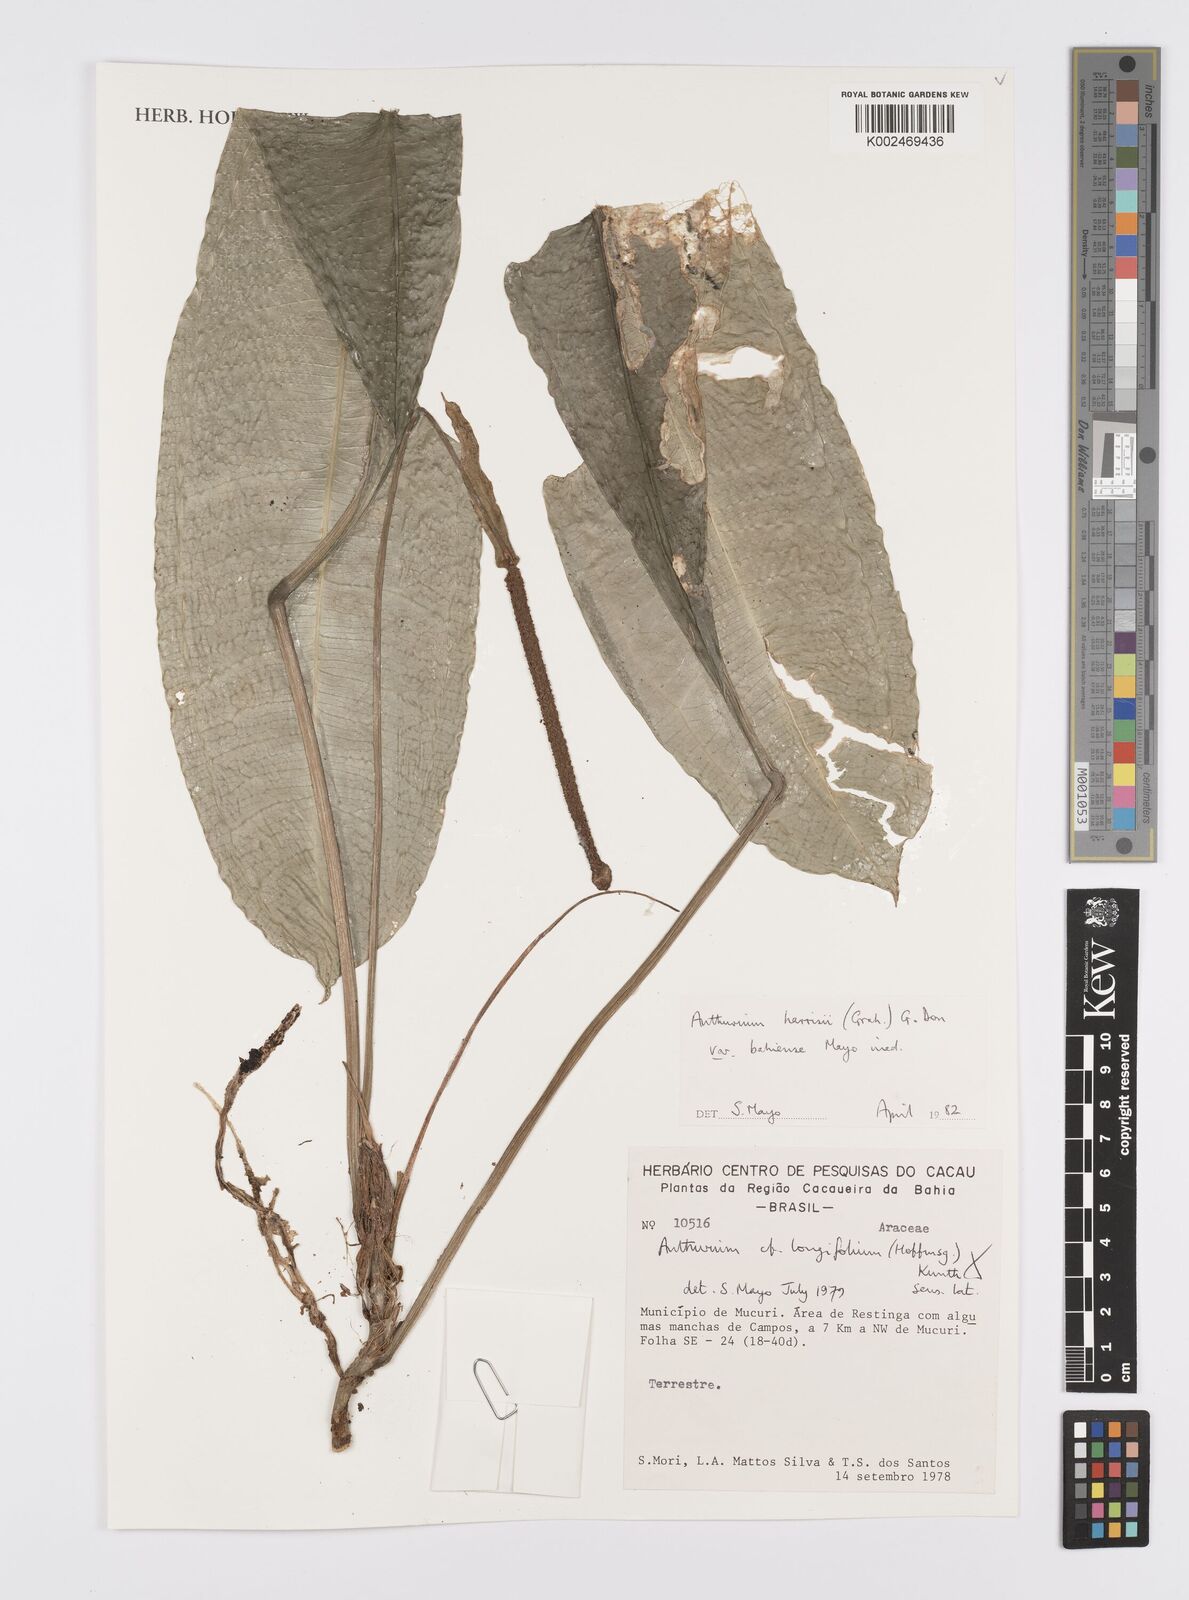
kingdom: Plantae
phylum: Tracheophyta
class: Liliopsida
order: Alismatales
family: Araceae
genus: Anthurium
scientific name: Anthurium harrisii
